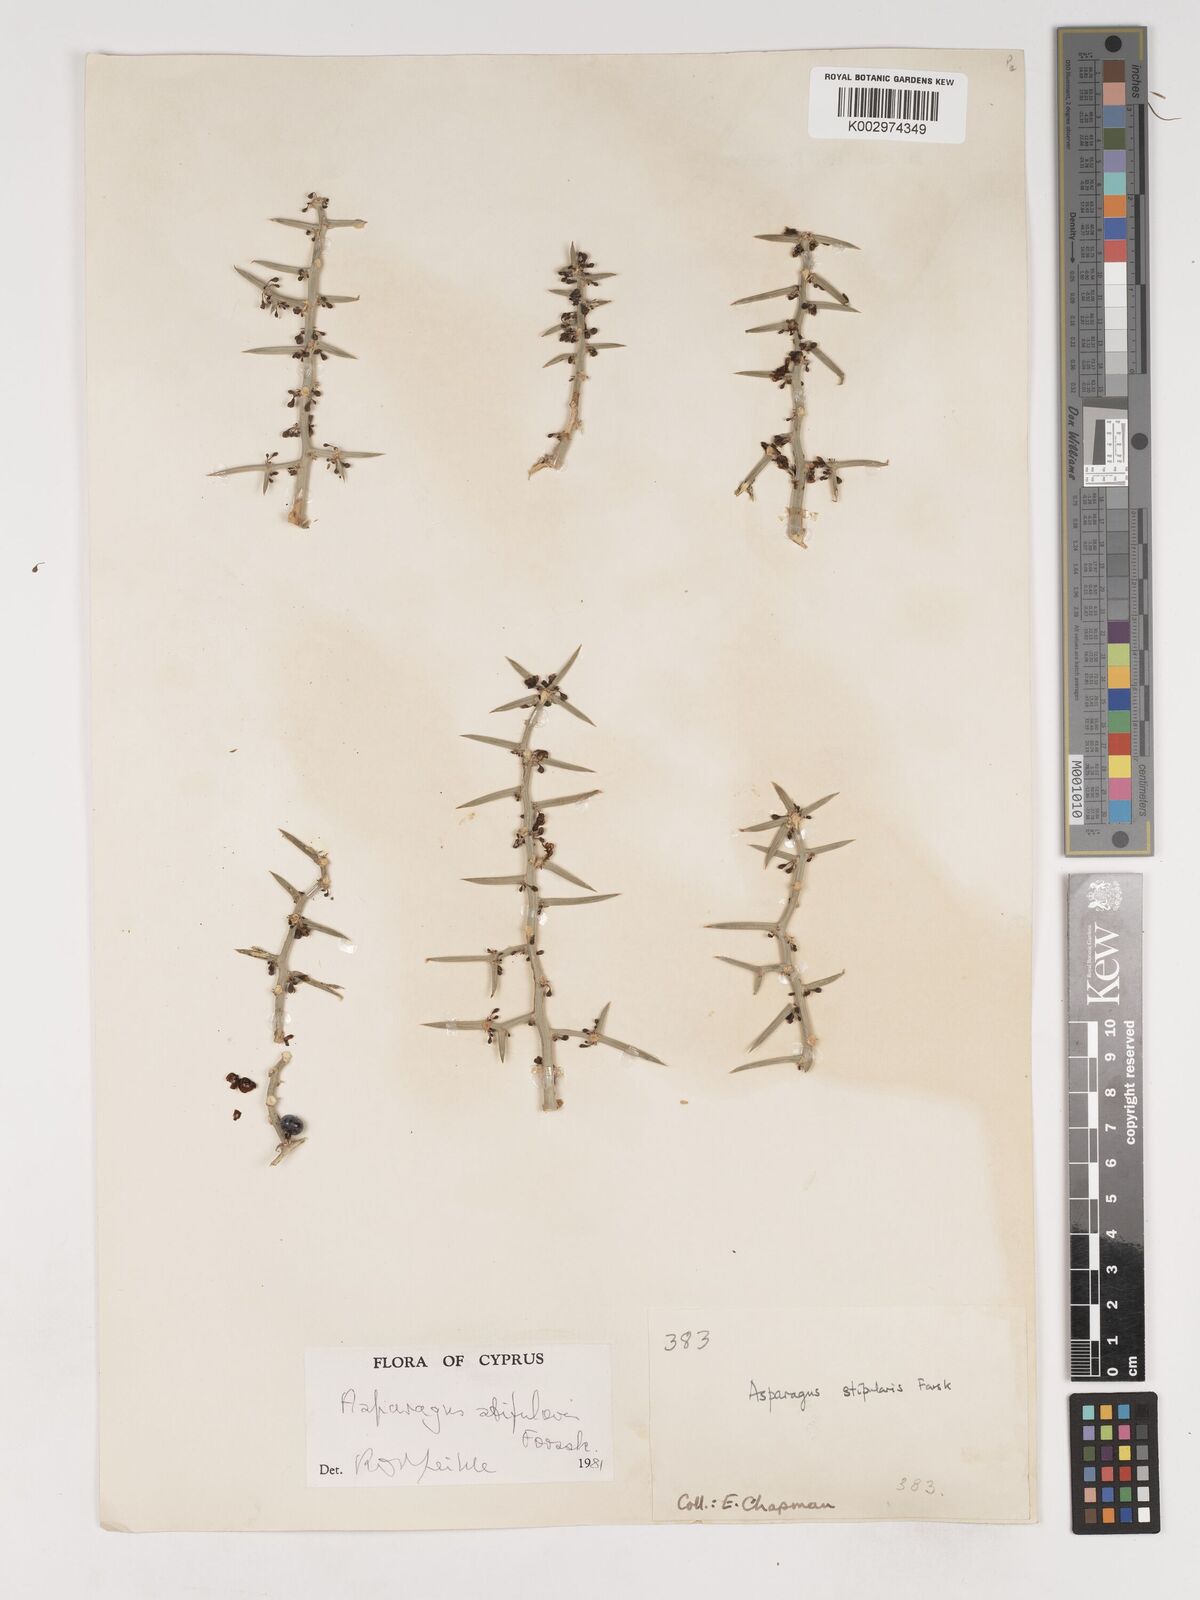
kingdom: Plantae
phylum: Tracheophyta
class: Liliopsida
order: Asparagales
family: Asparagaceae
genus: Asparagus
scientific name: Asparagus horridus
